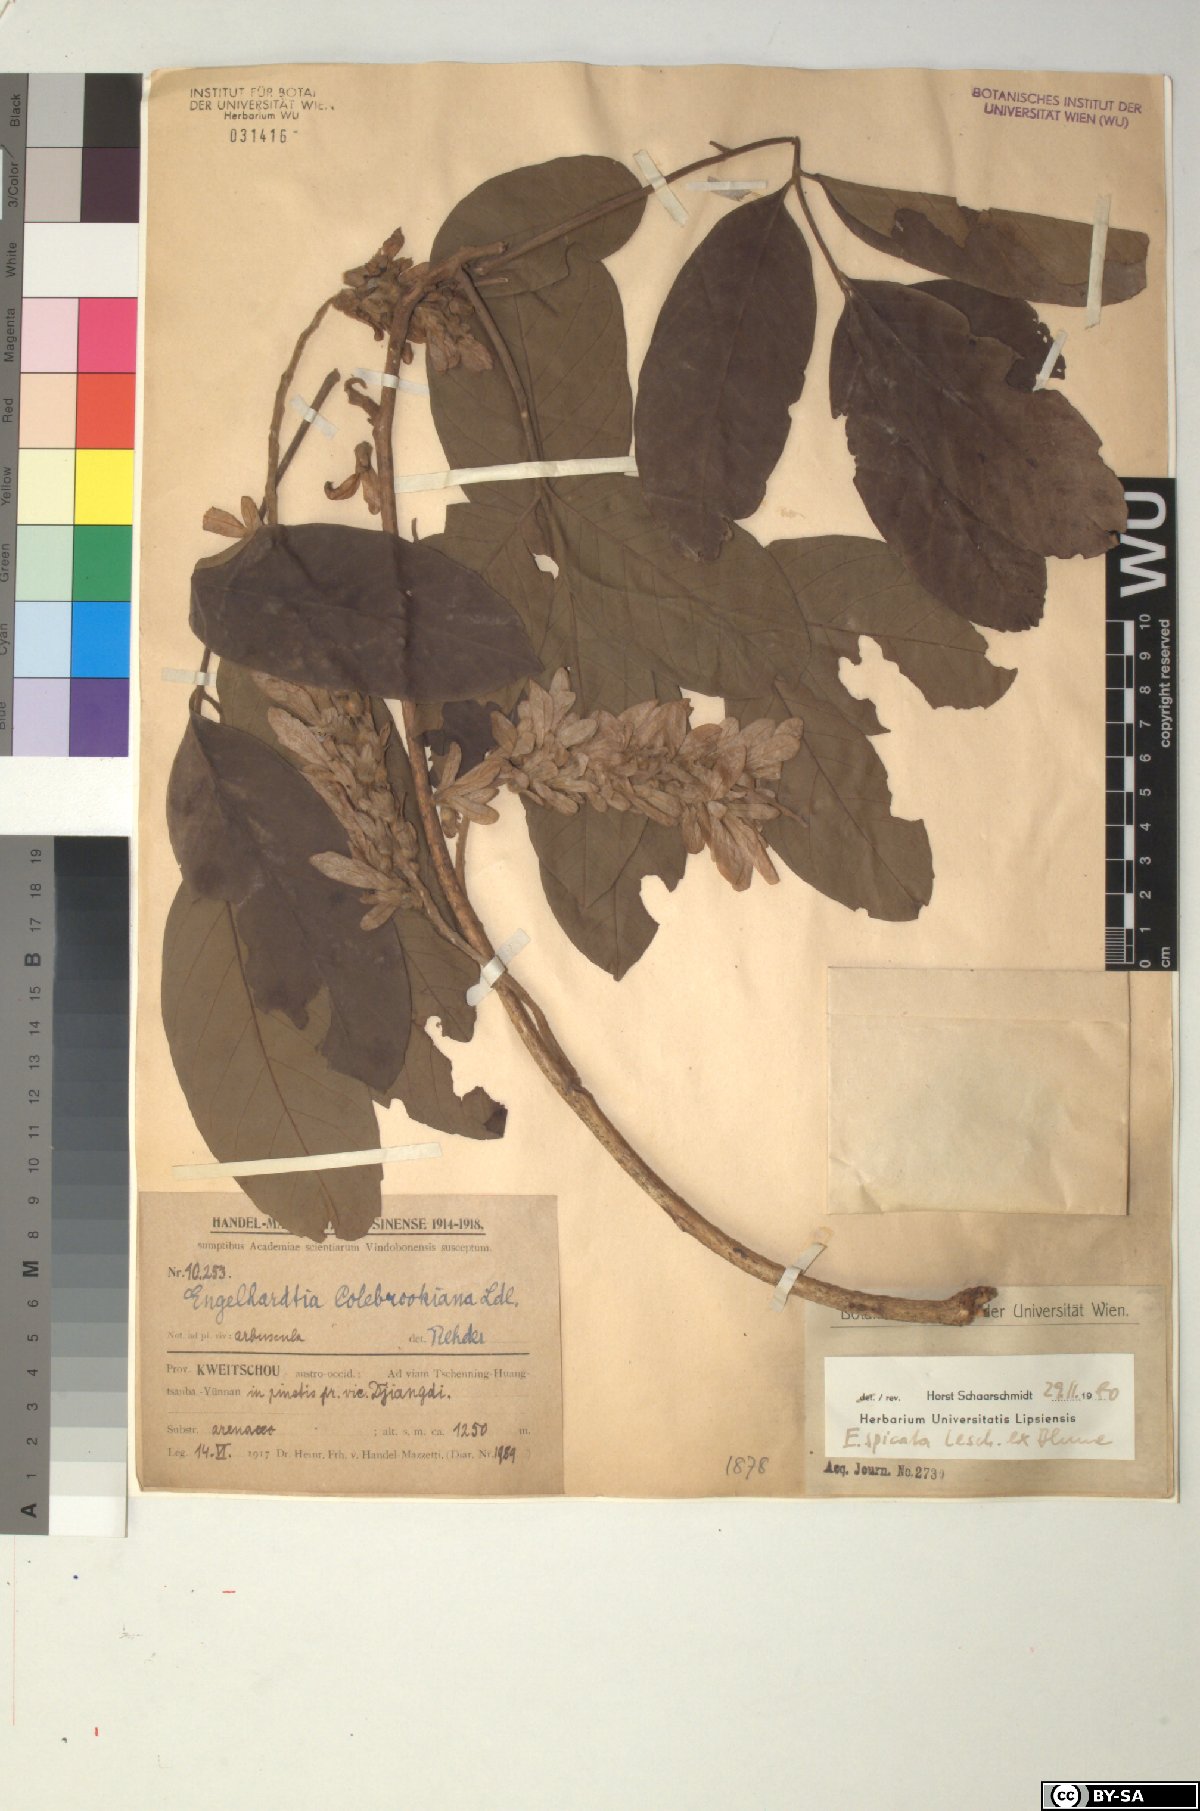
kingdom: Plantae
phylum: Tracheophyta
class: Magnoliopsida
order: Fagales
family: Juglandaceae
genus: Engelhardia
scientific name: Engelhardia spicata
